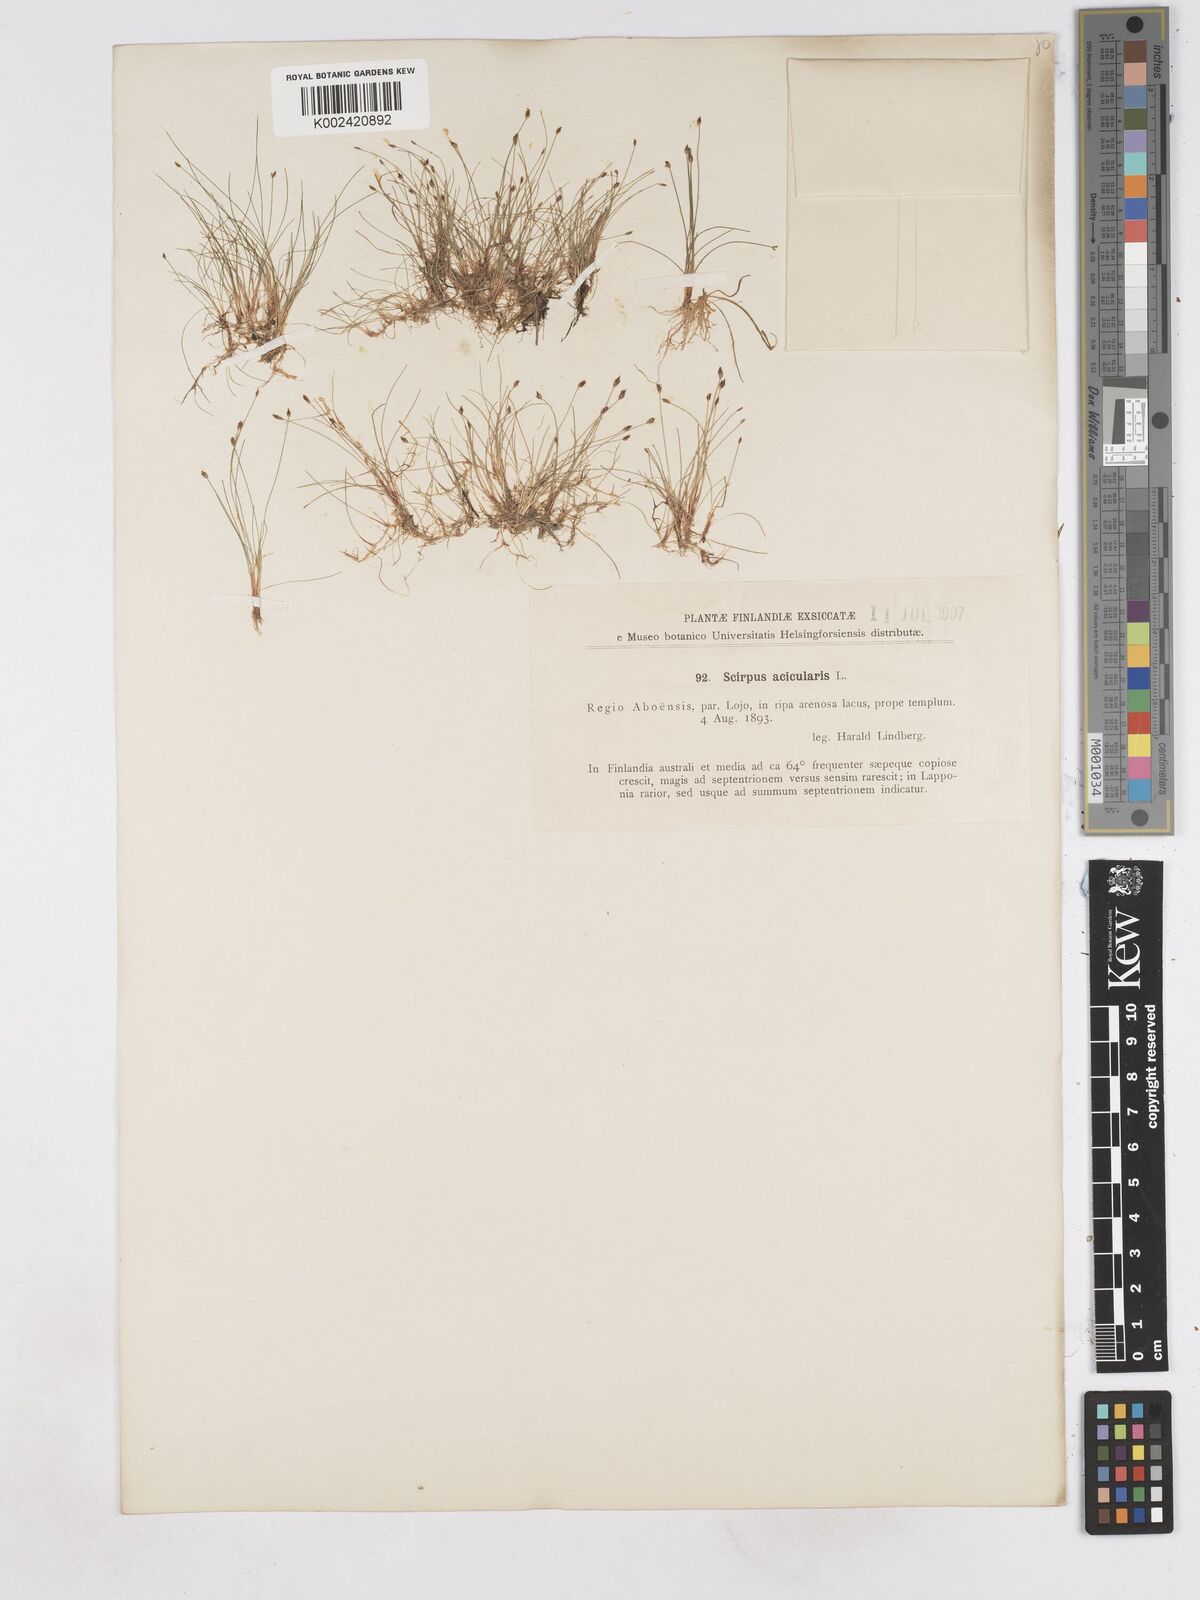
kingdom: Plantae
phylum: Tracheophyta
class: Liliopsida
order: Poales
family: Cyperaceae
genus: Eleocharis
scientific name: Eleocharis acicularis
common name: Needle spike-rush
